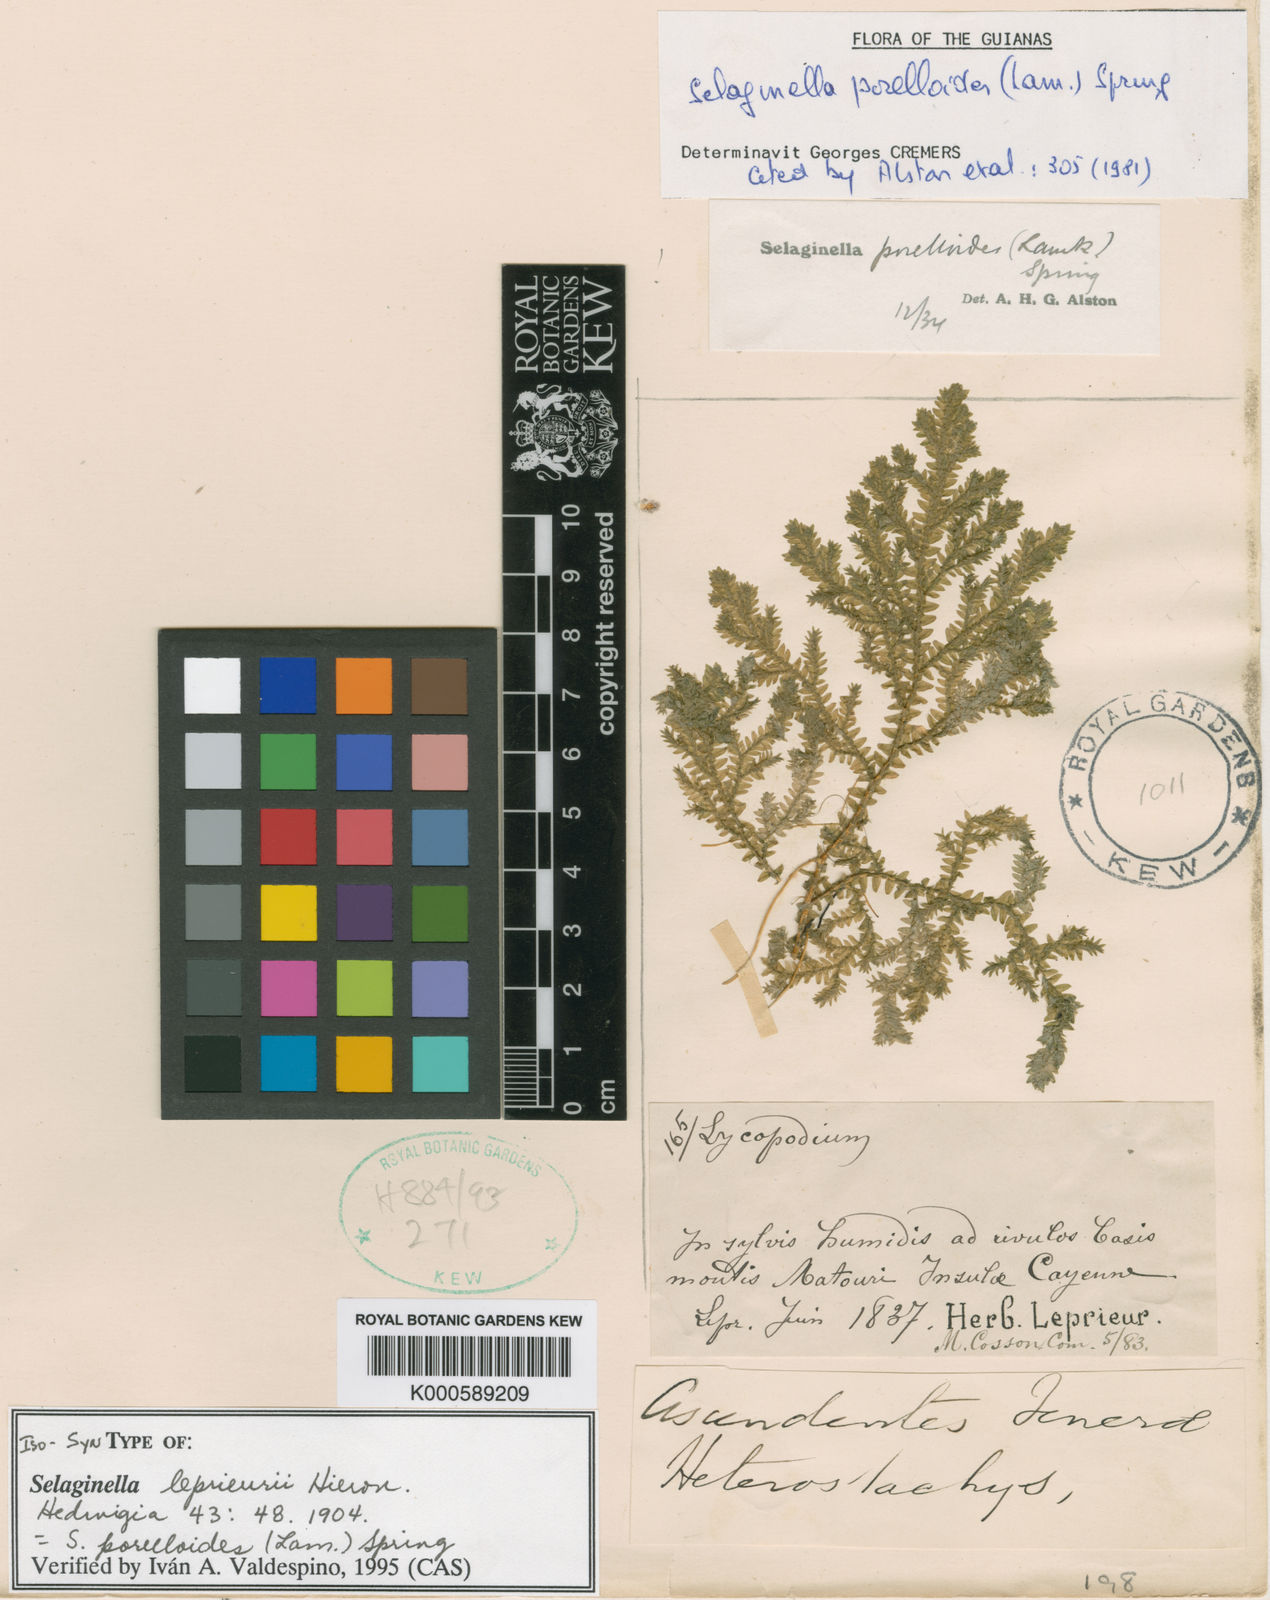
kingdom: Plantae
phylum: Tracheophyta
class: Lycopodiopsida
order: Selaginellales
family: Selaginellaceae
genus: Selaginella
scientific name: Selaginella porelloides
